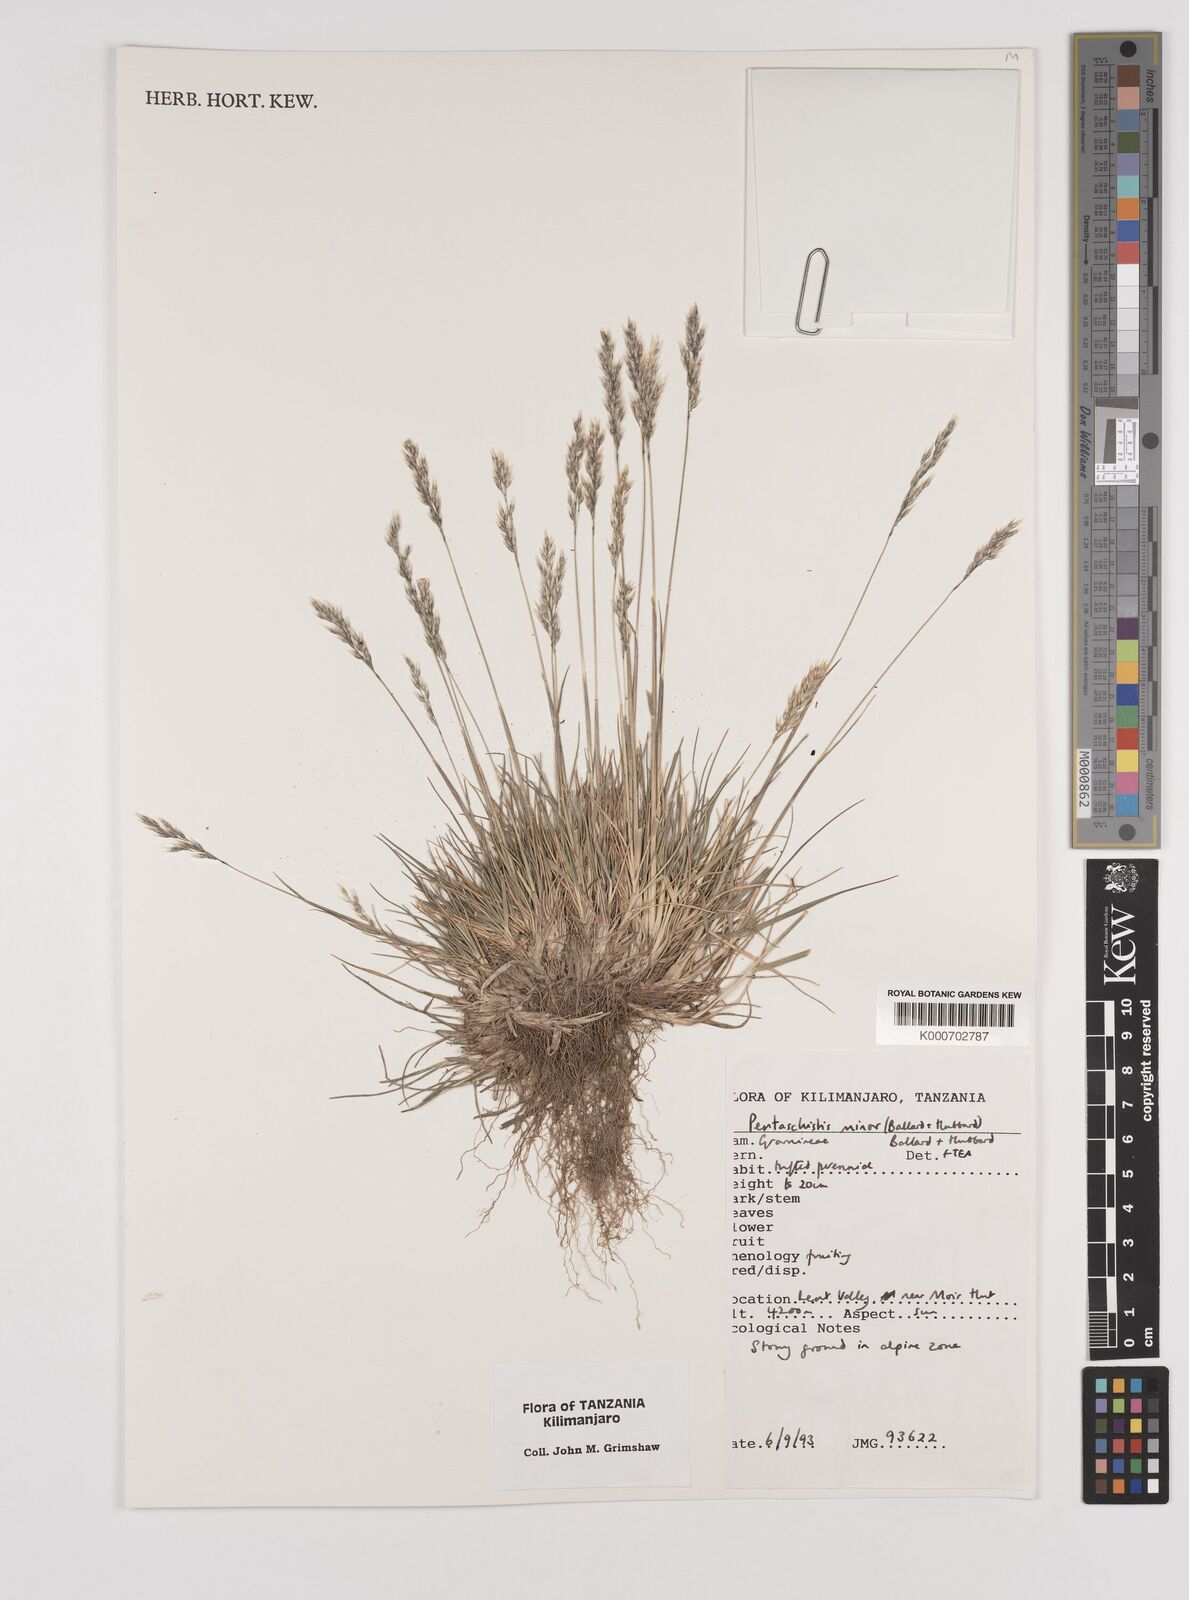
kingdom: Plantae
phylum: Tracheophyta
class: Liliopsida
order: Poales
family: Poaceae
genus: Pentameris
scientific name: Pentameris borussica
